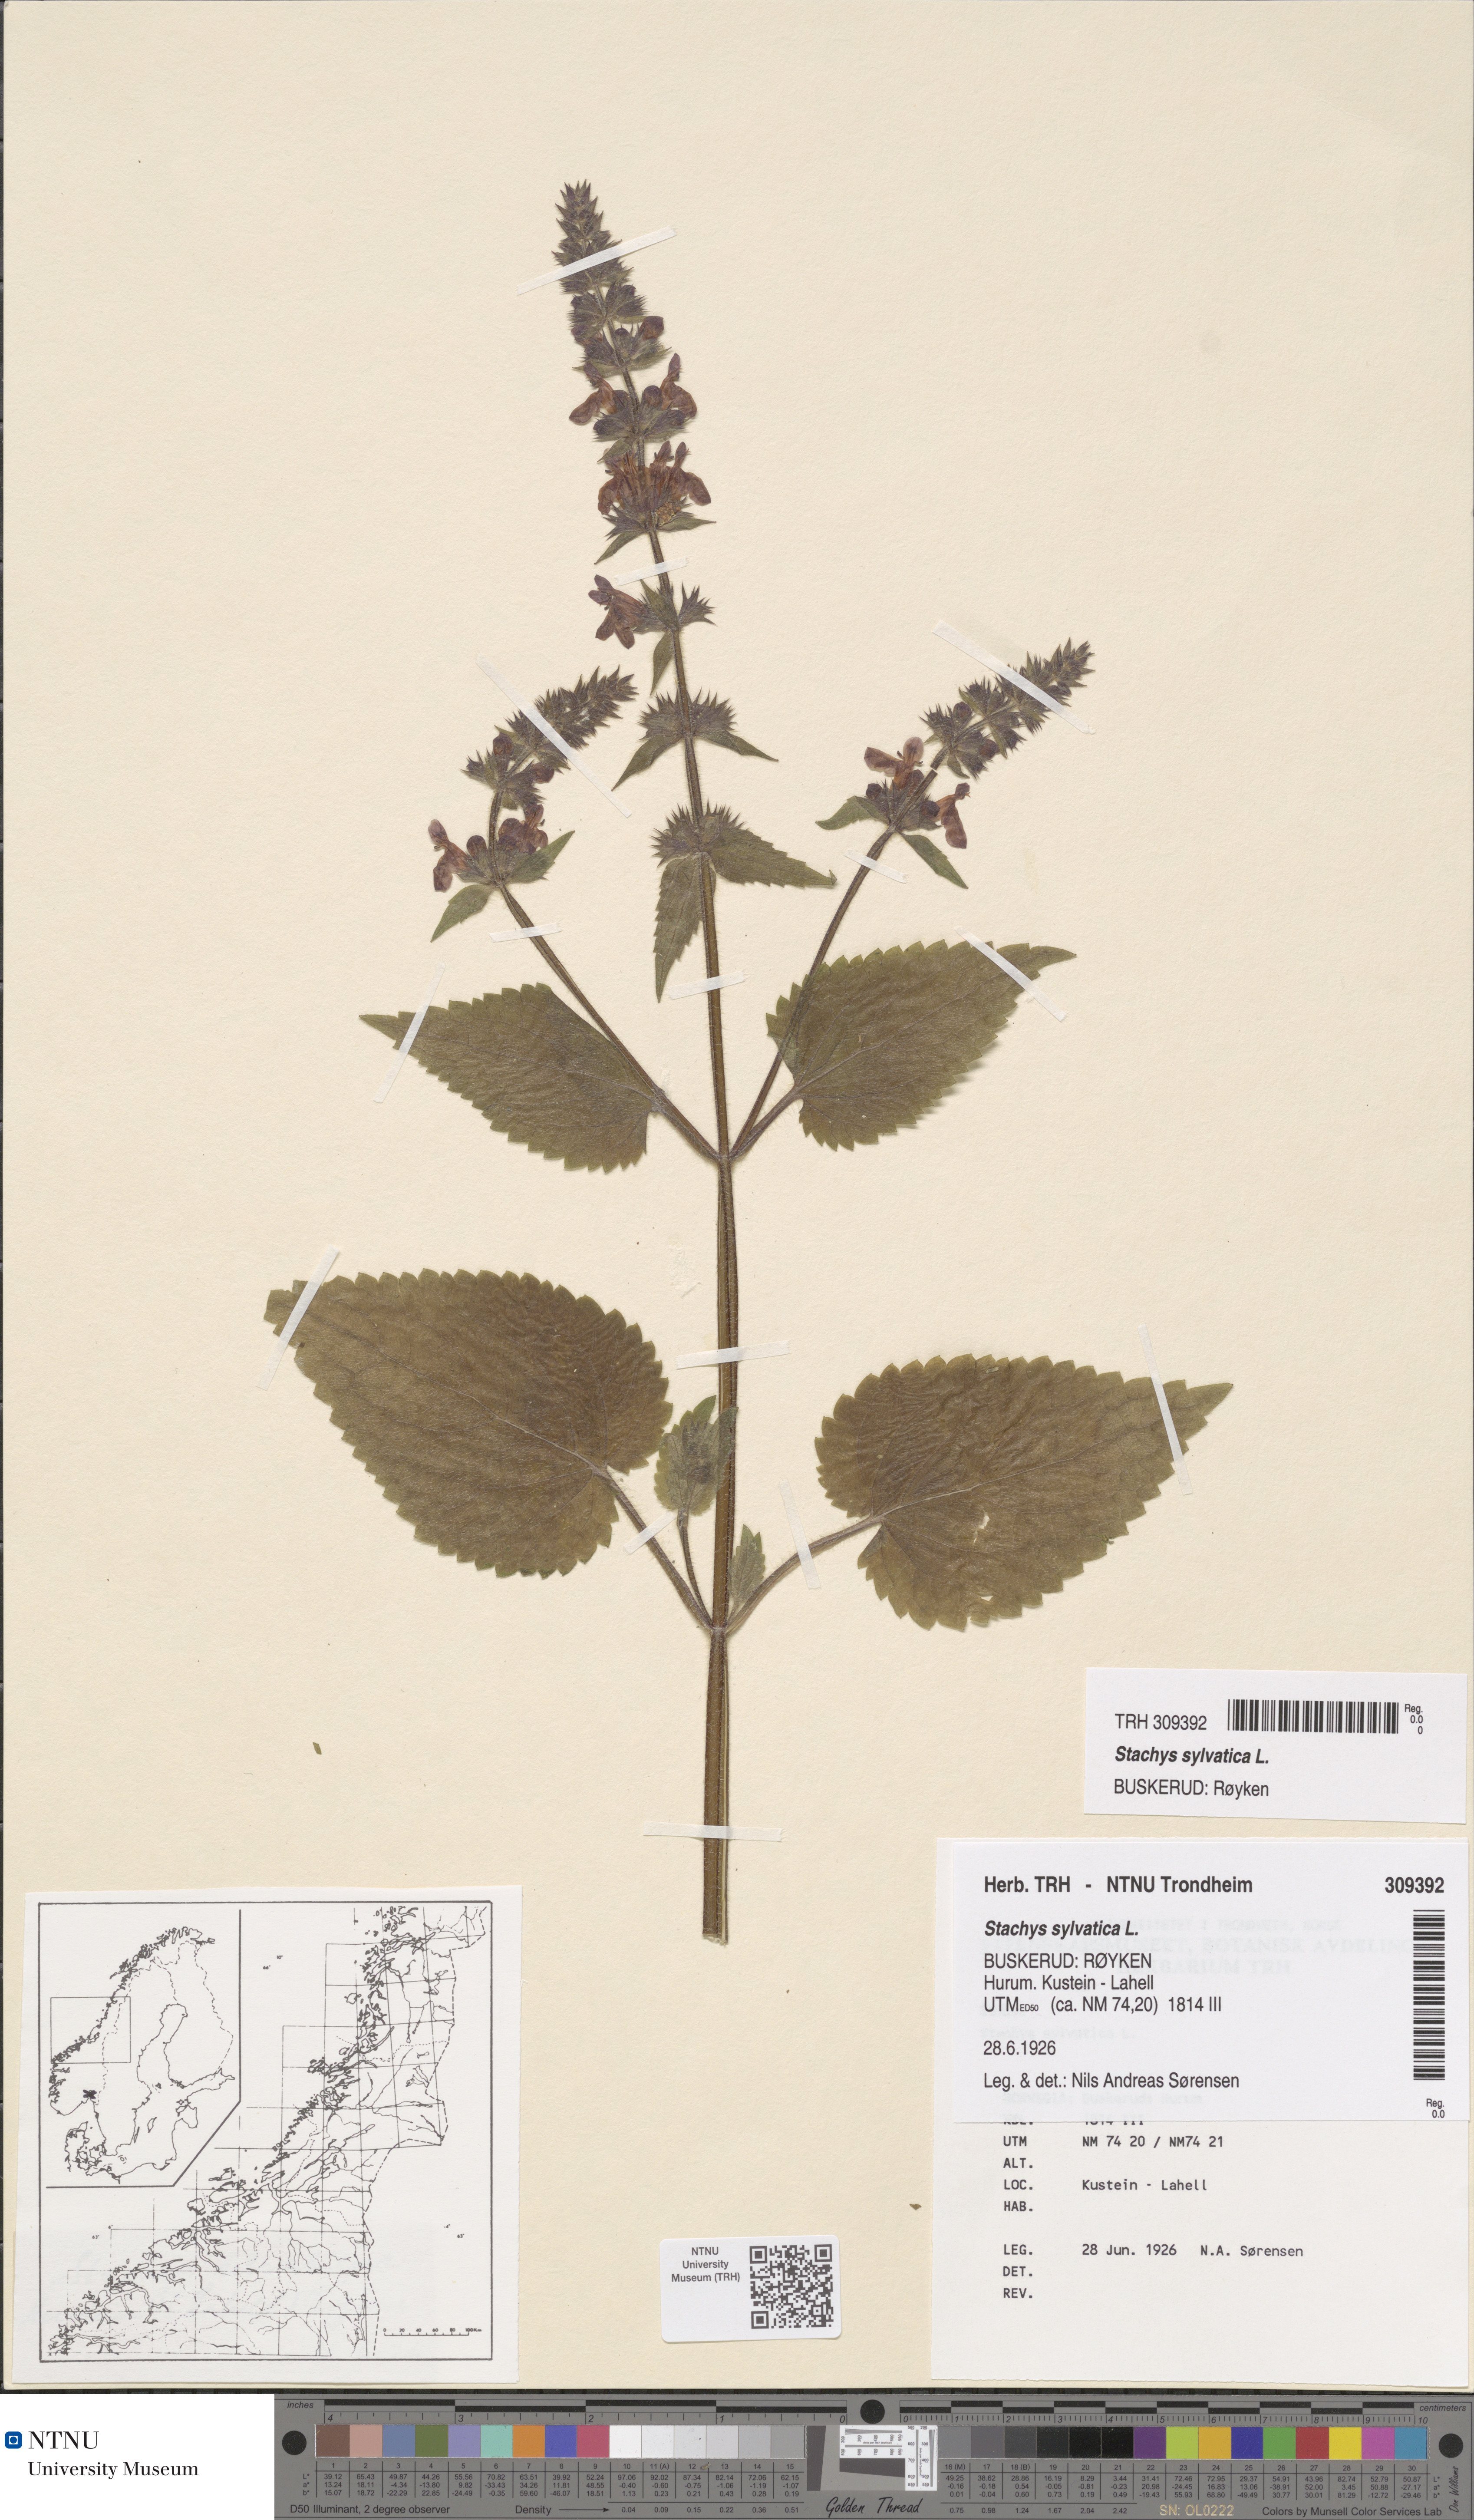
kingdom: Plantae
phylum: Tracheophyta
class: Magnoliopsida
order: Lamiales
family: Lamiaceae
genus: Stachys
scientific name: Stachys sylvatica
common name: Hedge woundwort
